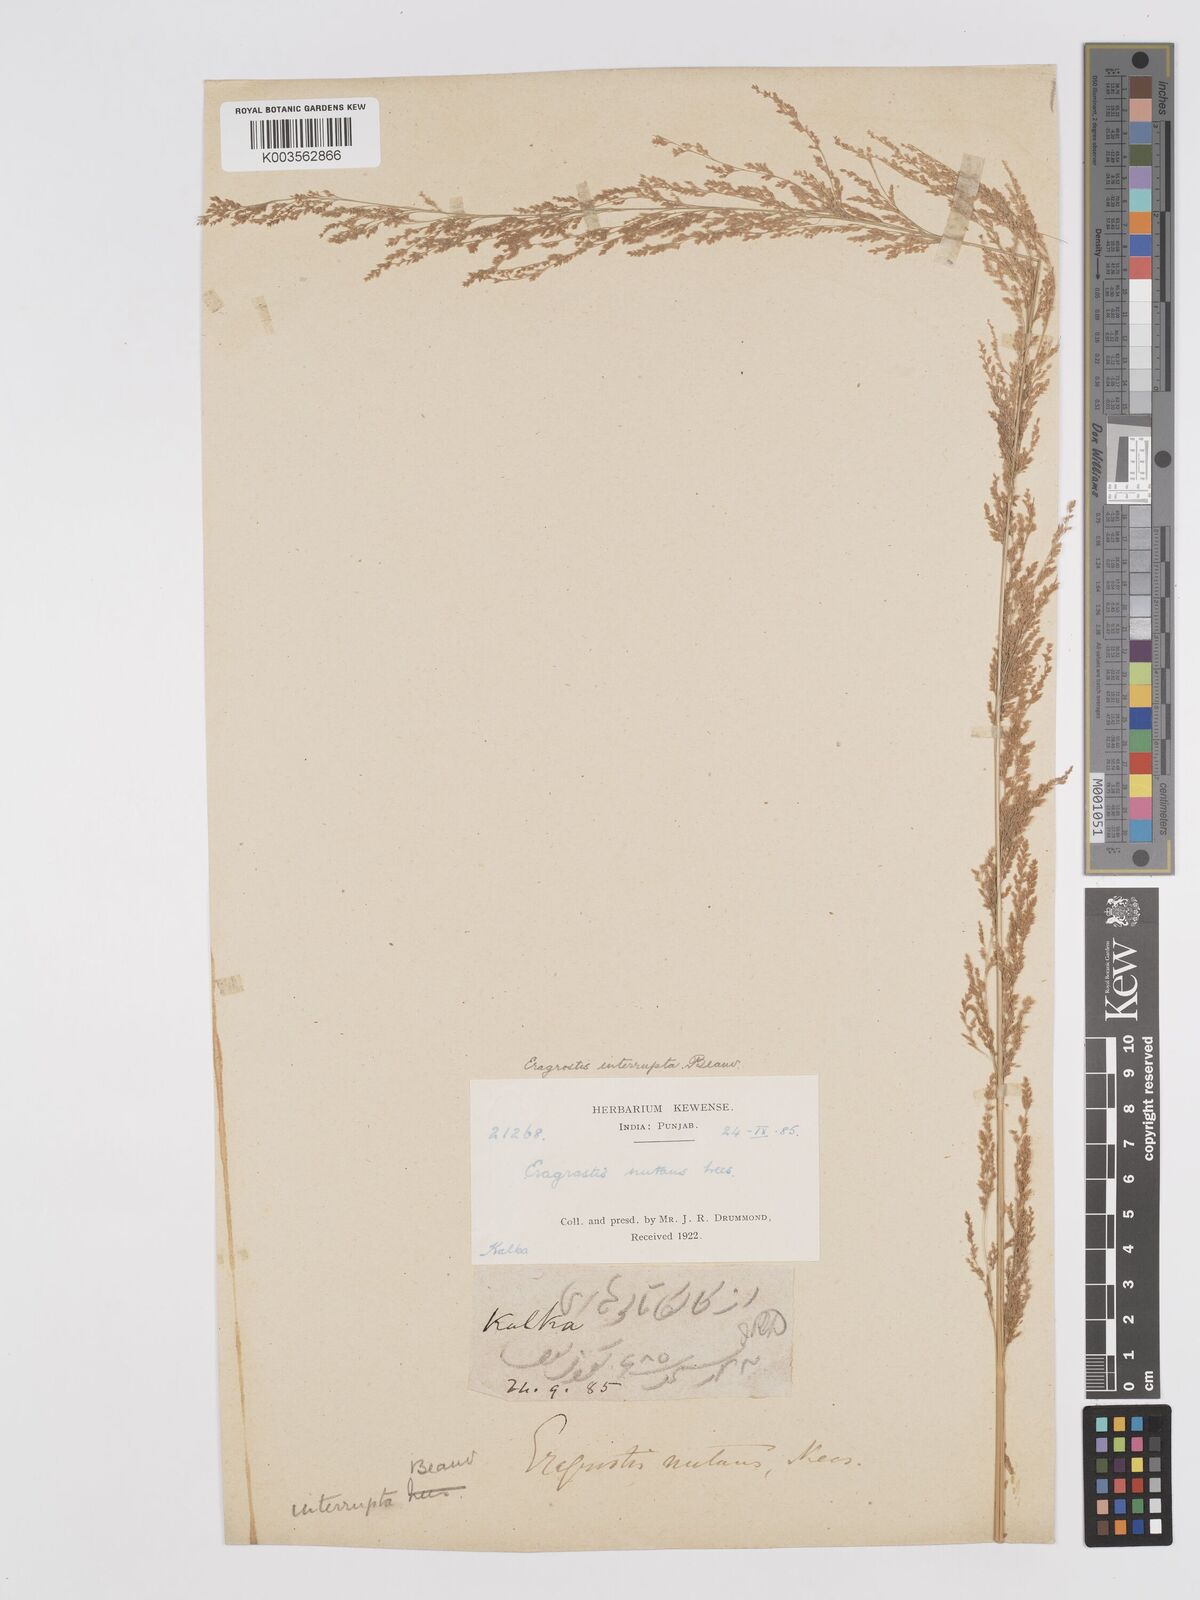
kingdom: Plantae
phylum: Tracheophyta
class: Liliopsida
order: Poales
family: Poaceae
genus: Eragrostis
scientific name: Eragrostis japonica
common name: Pond lovegrass
